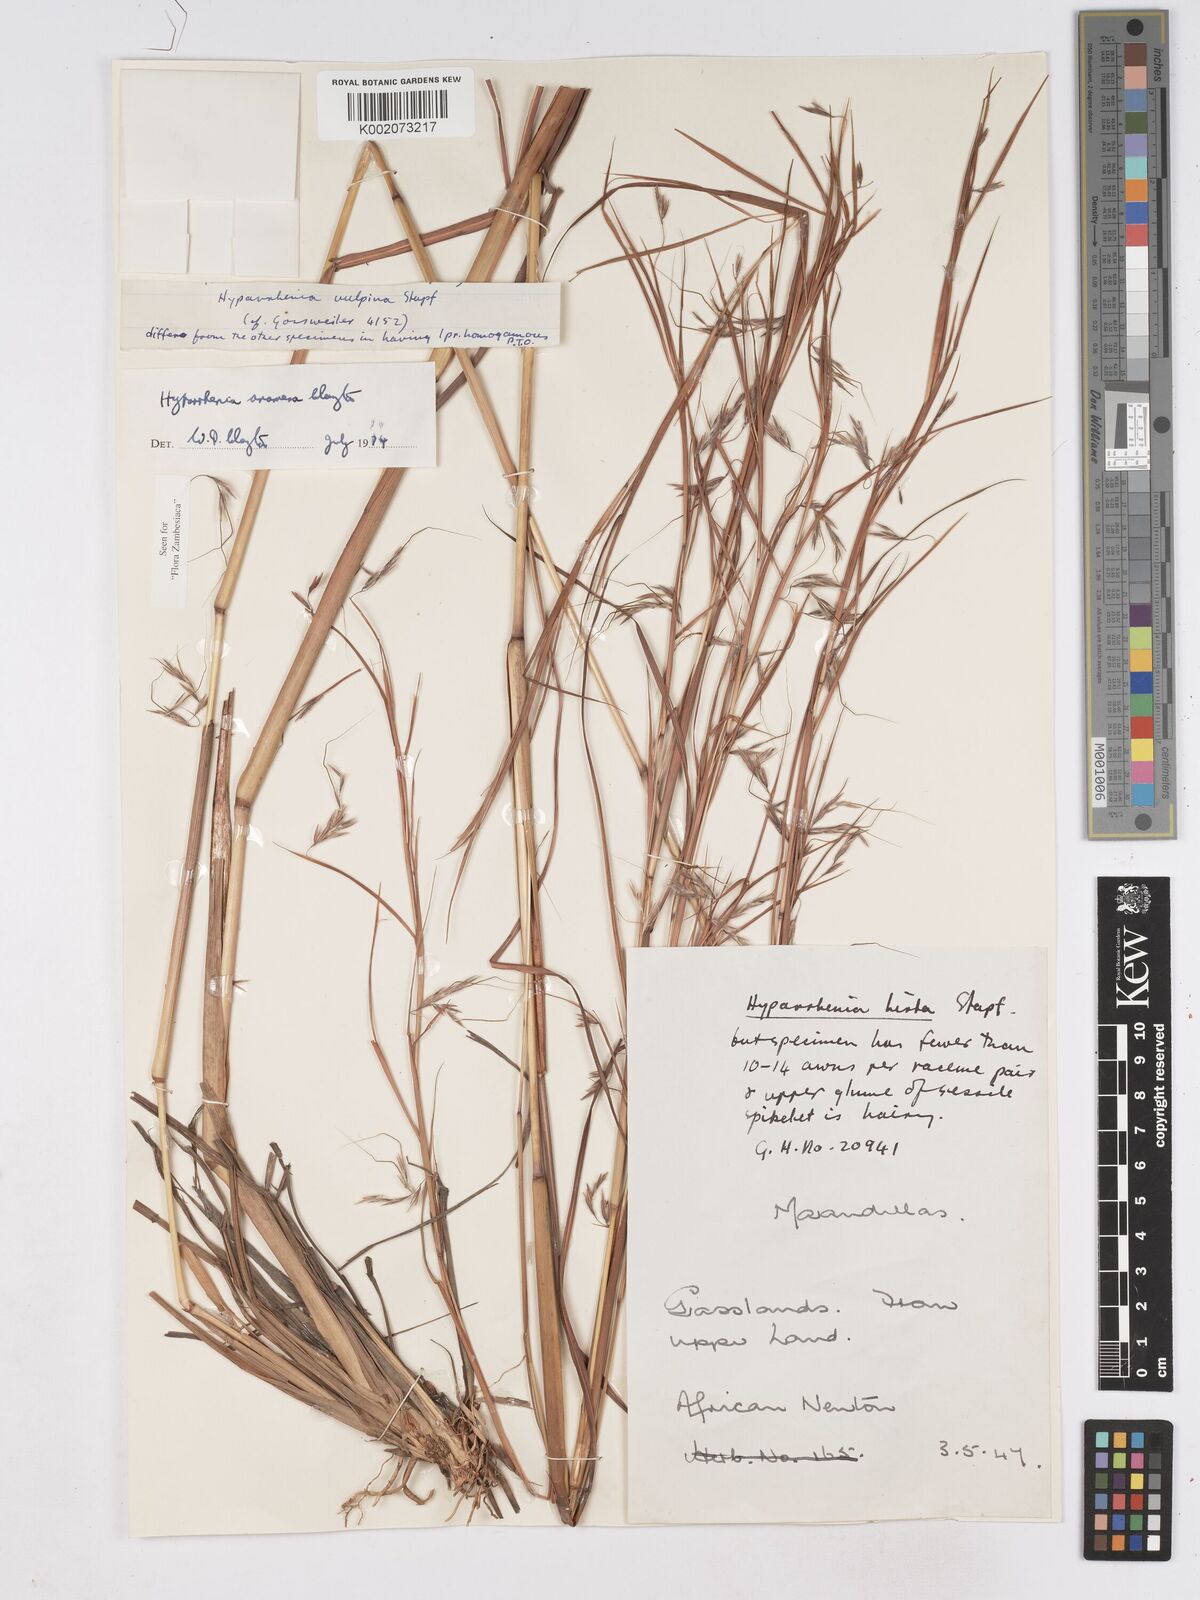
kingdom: Plantae
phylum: Tracheophyta
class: Liliopsida
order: Poales
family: Poaceae
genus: Hyparrhenia
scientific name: Hyparrhenia anamesa
